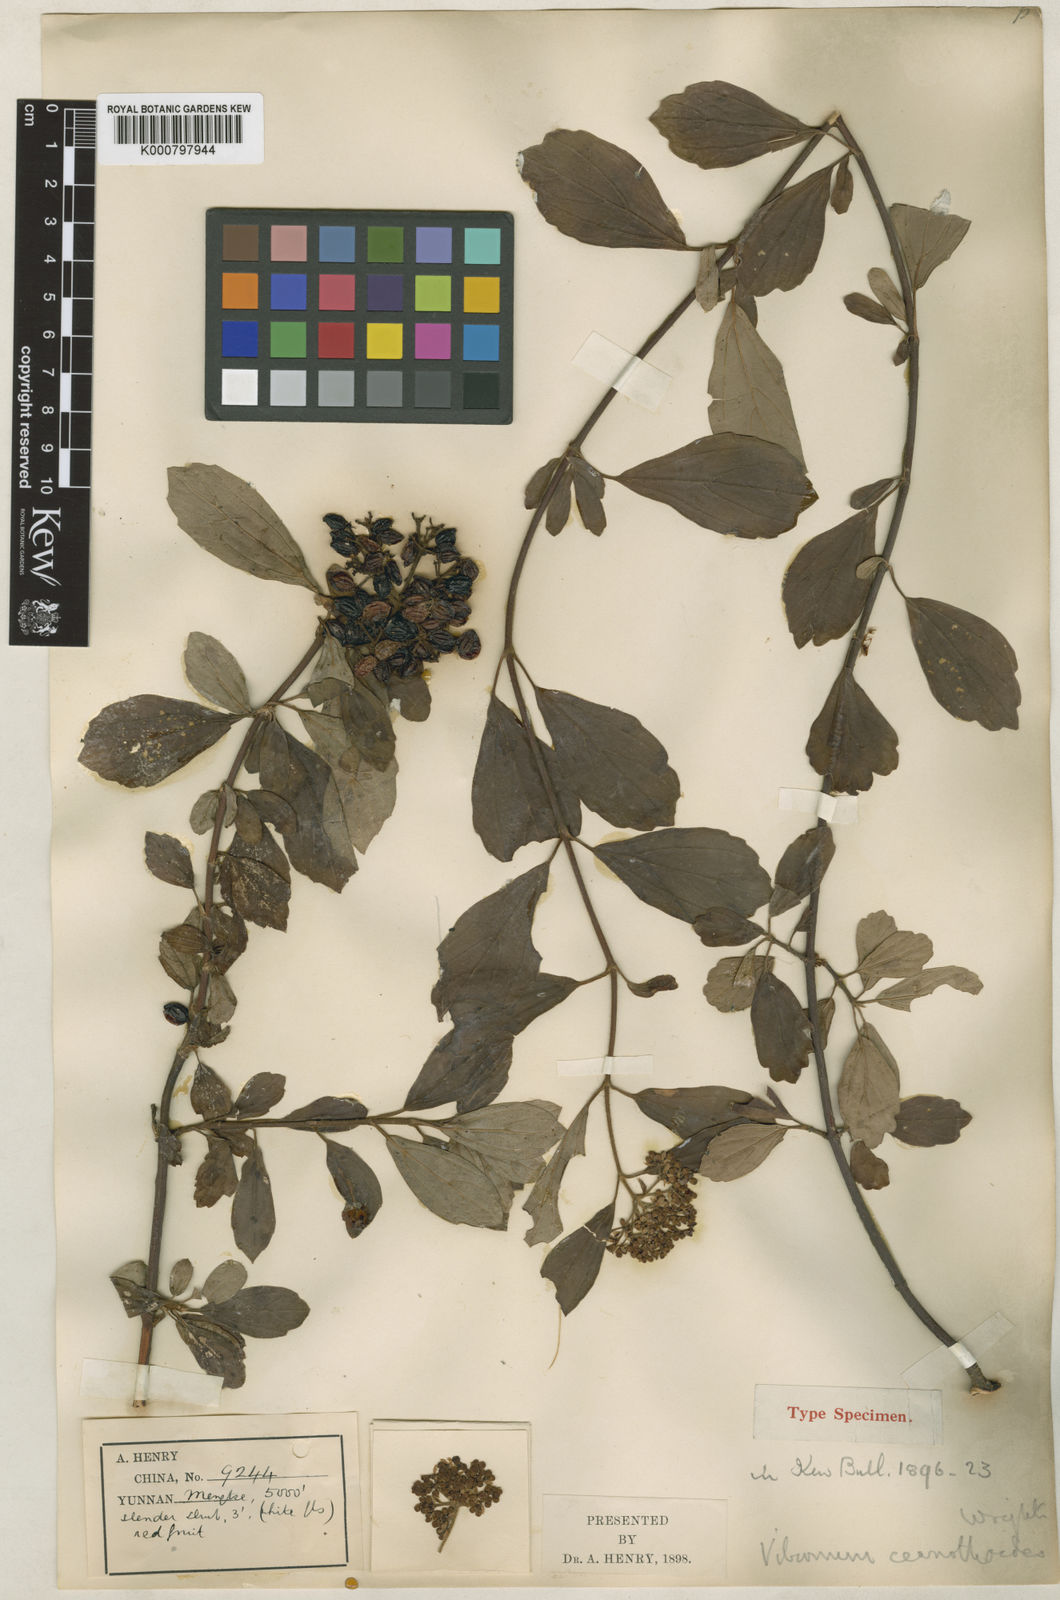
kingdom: Plantae
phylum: Tracheophyta
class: Magnoliopsida
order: Dipsacales
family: Viburnaceae
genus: Viburnum
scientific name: Viburnum foetidum
